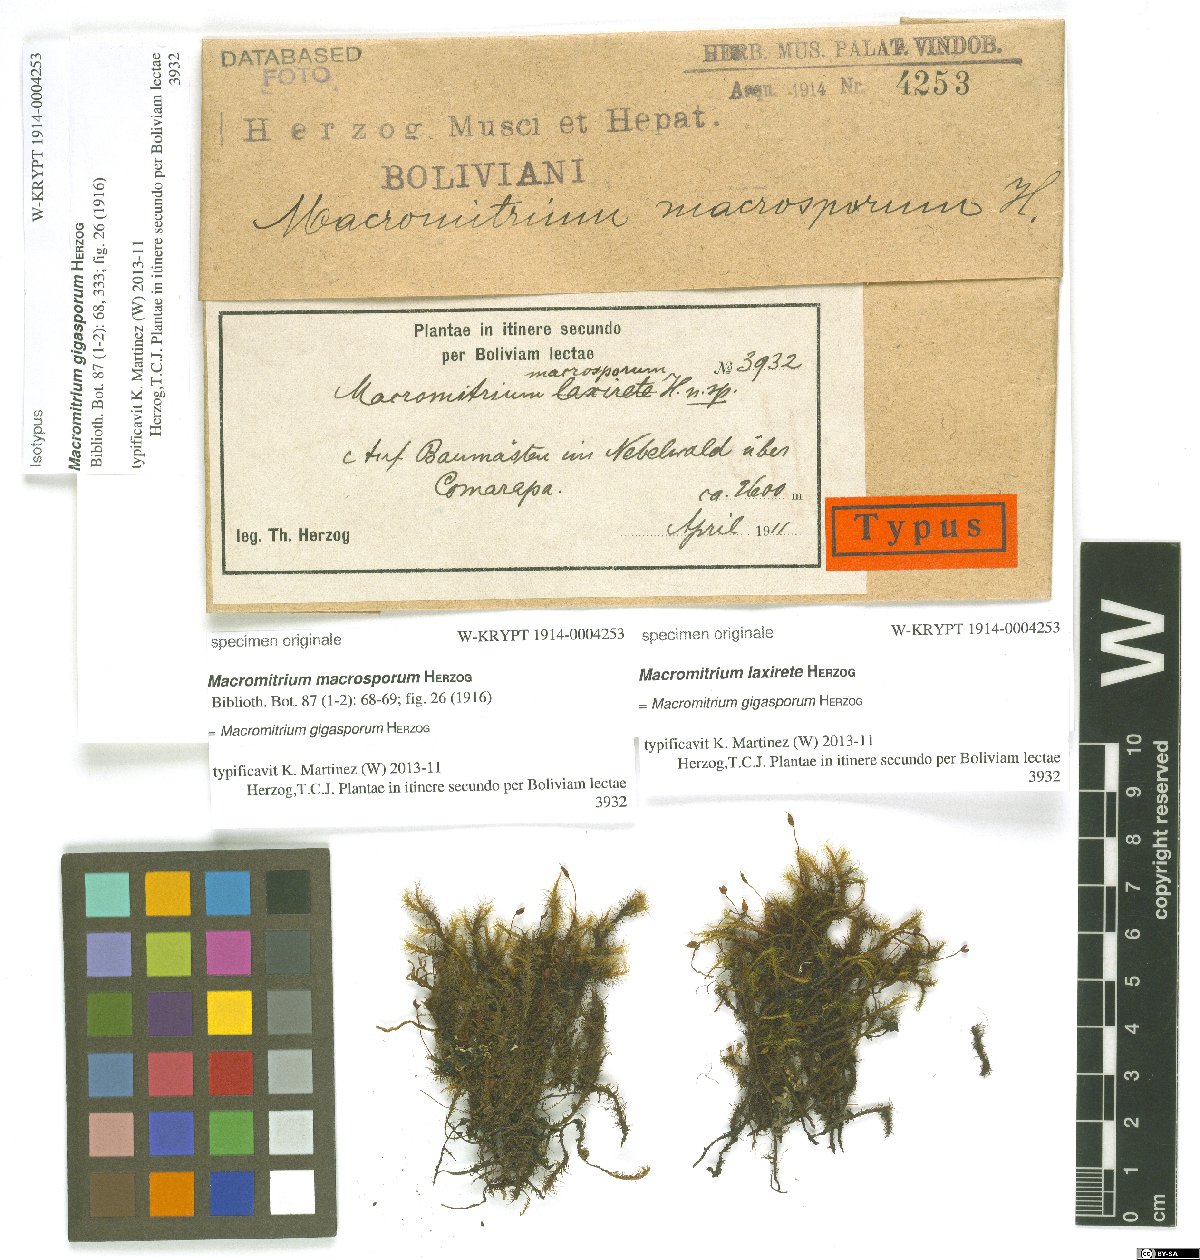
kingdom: Plantae
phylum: Bryophyta
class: Bryopsida
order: Orthotrichales
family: Orthotrichaceae
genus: Macromitrium
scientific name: Macromitrium gigasporum
